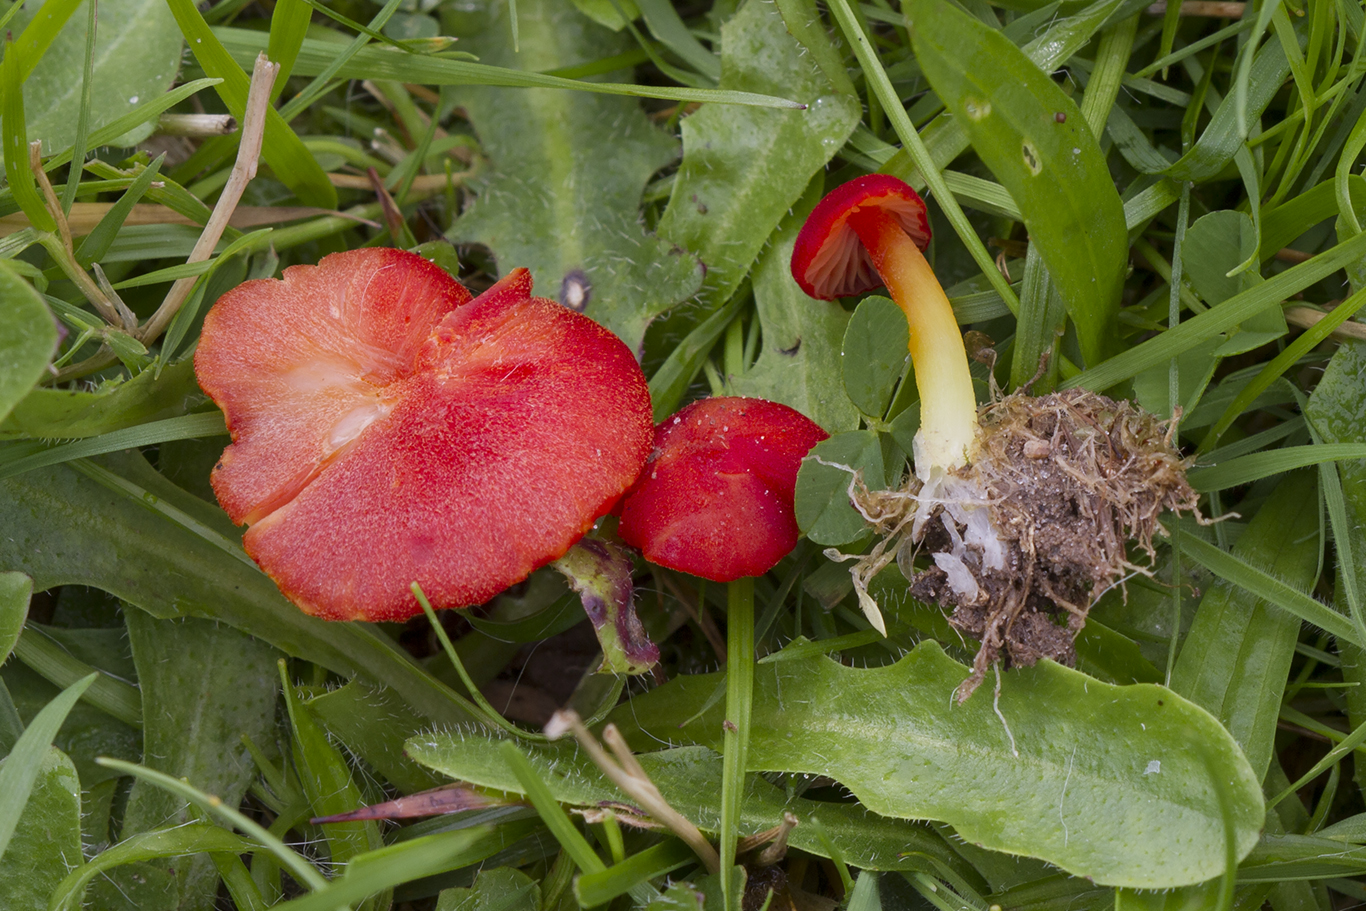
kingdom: Fungi
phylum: Basidiomycota
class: Agaricomycetes
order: Agaricales
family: Hygrophoraceae
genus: Hygrocybe
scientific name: Hygrocybe helobia
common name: hvidløgs-vokshat
